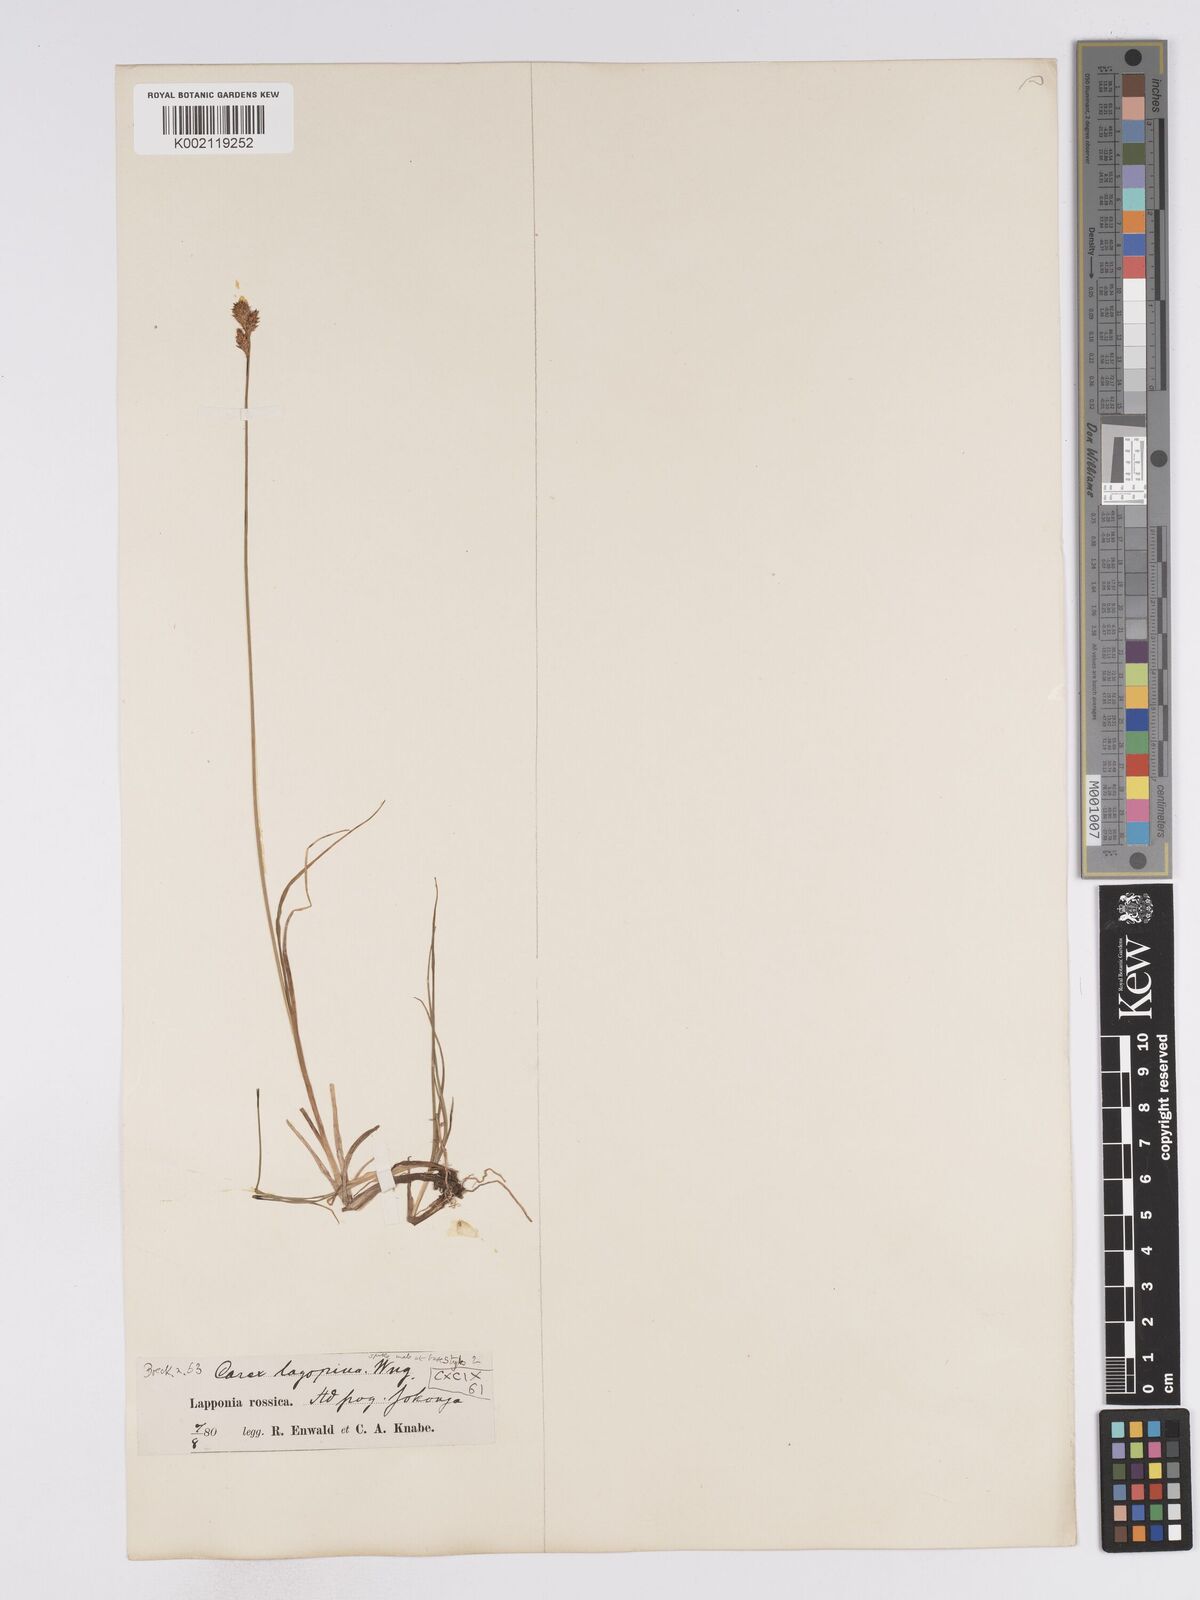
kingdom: Plantae
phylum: Tracheophyta
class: Liliopsida
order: Poales
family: Cyperaceae
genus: Carex
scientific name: Carex lachenalii
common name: Hare's-foot sedge
